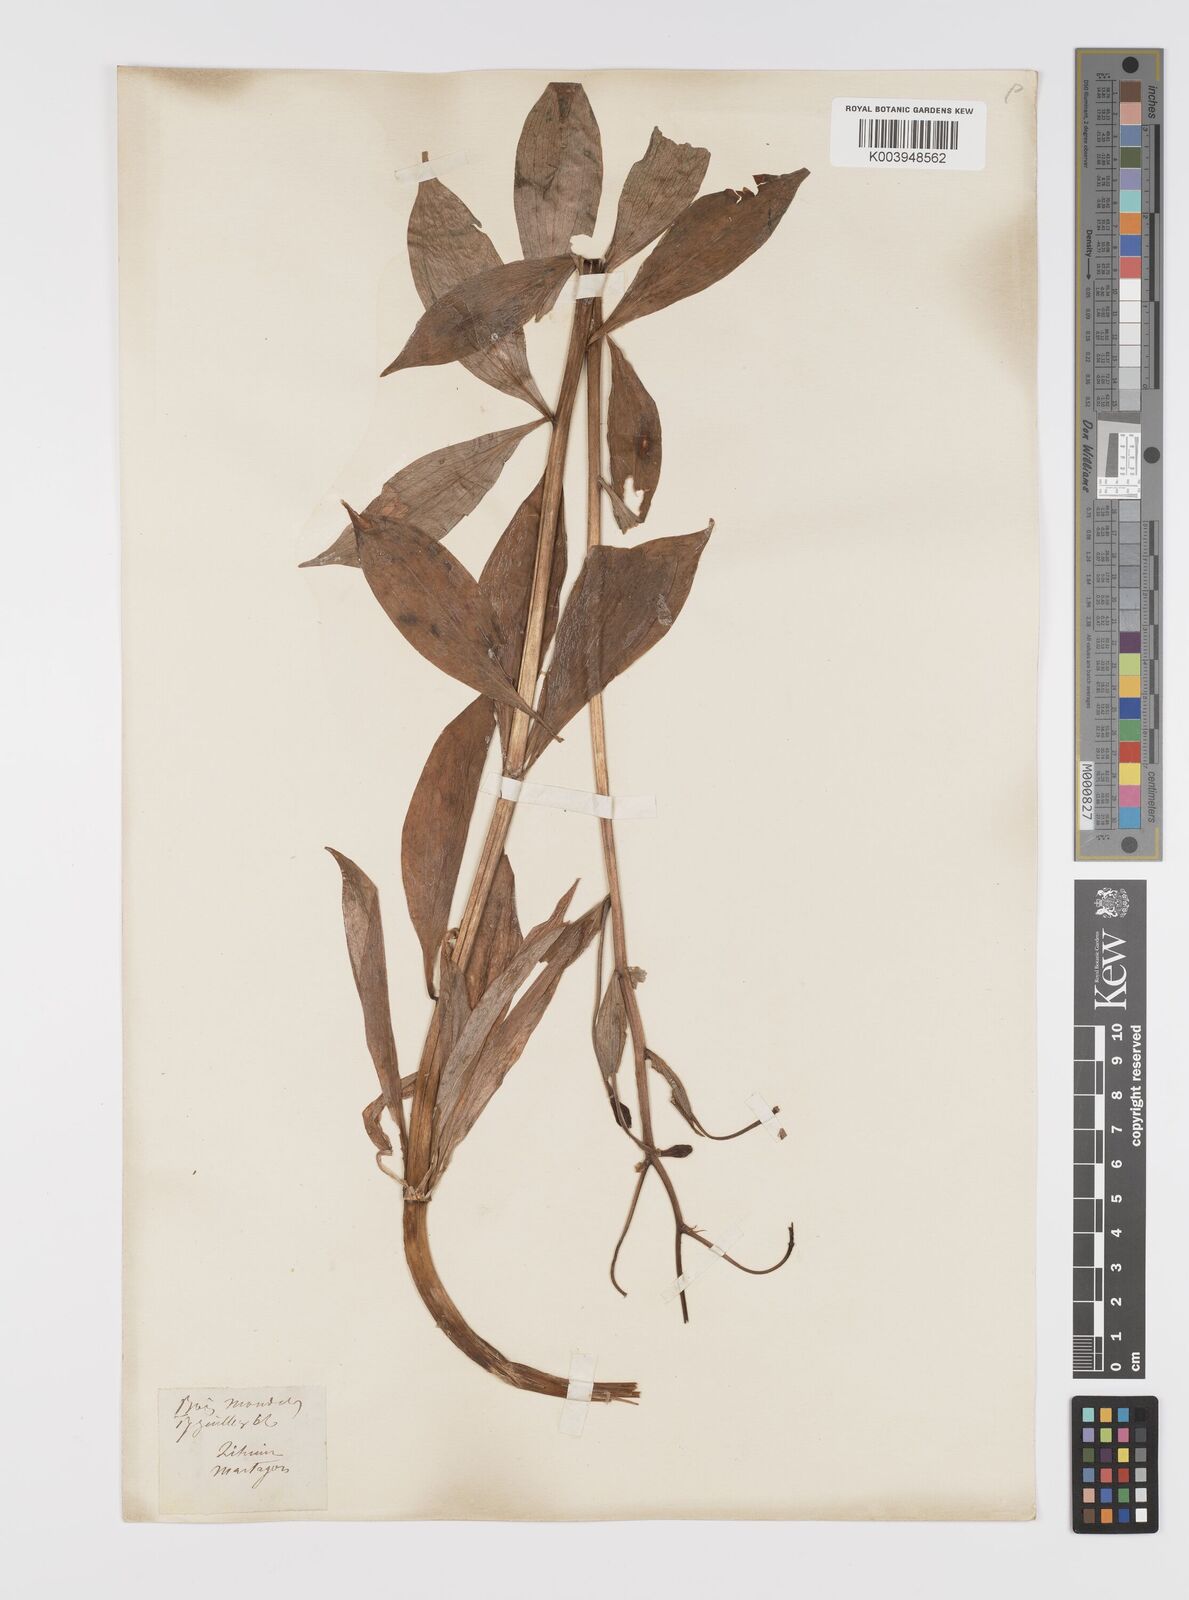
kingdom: Plantae
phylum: Tracheophyta
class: Liliopsida
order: Liliales
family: Liliaceae
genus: Lilium
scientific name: Lilium martagon
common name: Martagon lily
